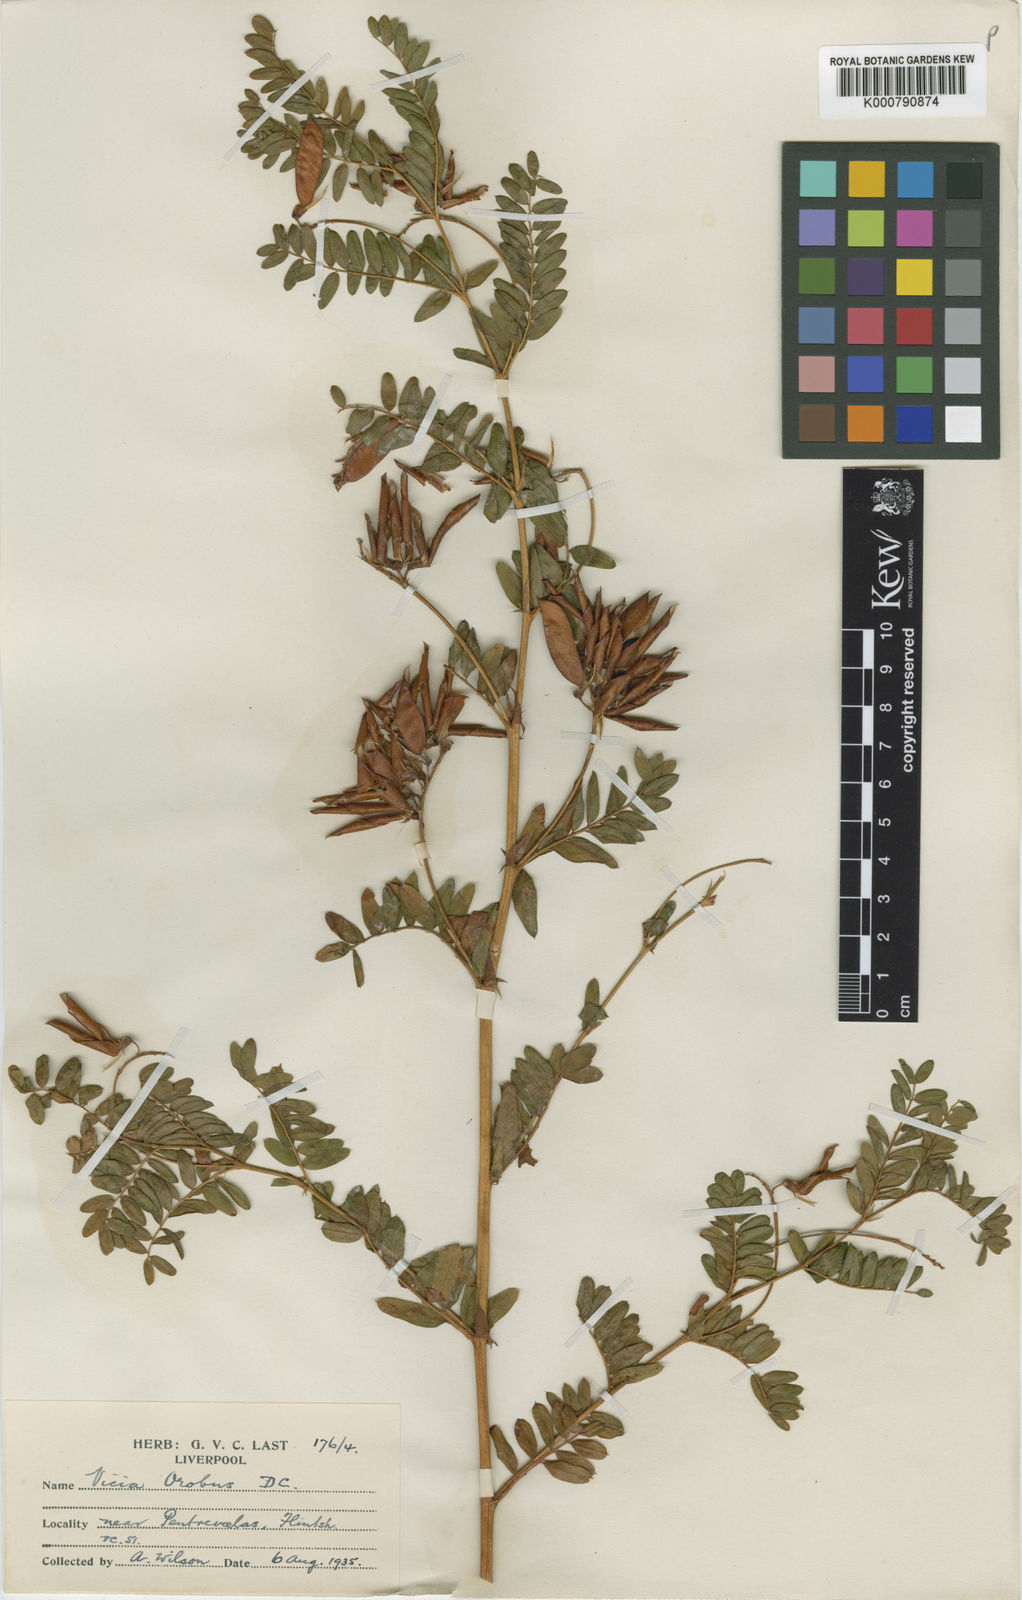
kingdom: Plantae
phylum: Tracheophyta
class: Magnoliopsida
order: Fabales
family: Fabaceae
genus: Vicia
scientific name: Vicia orobus
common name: Wood bitter-vetch
